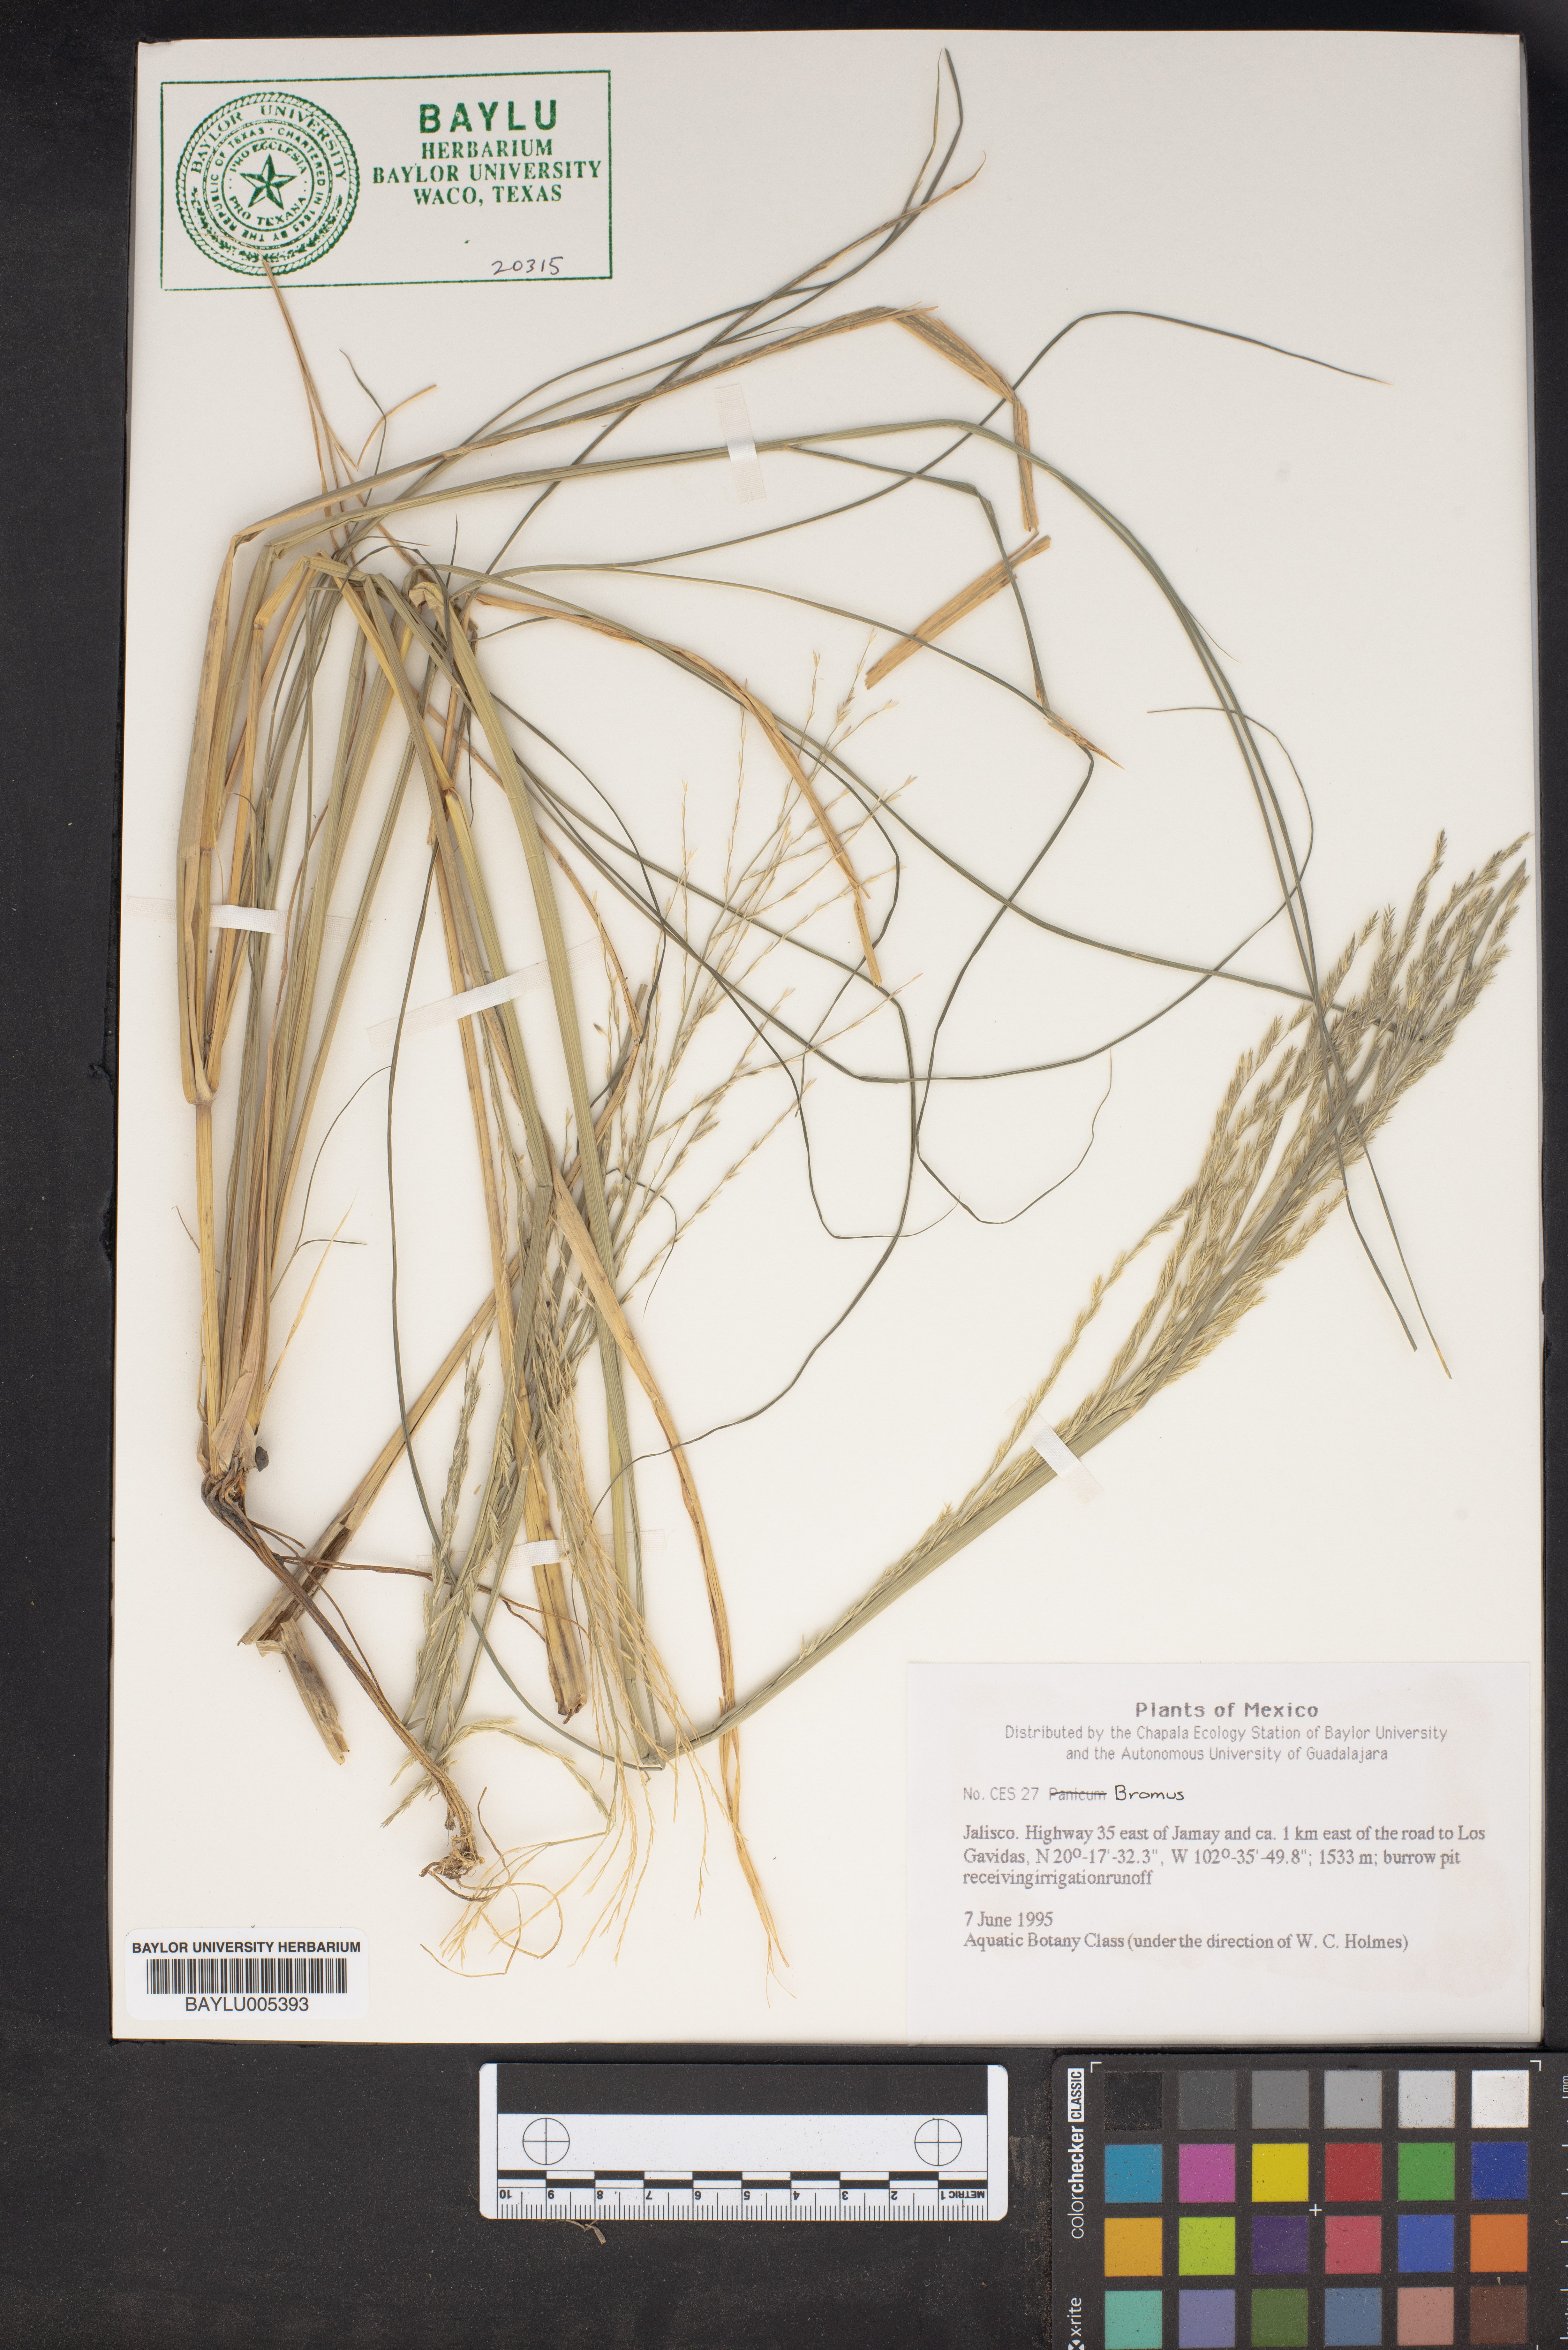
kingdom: Plantae
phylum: Tracheophyta
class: Liliopsida
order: Poales
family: Poaceae
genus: Bromus
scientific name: Bromus
